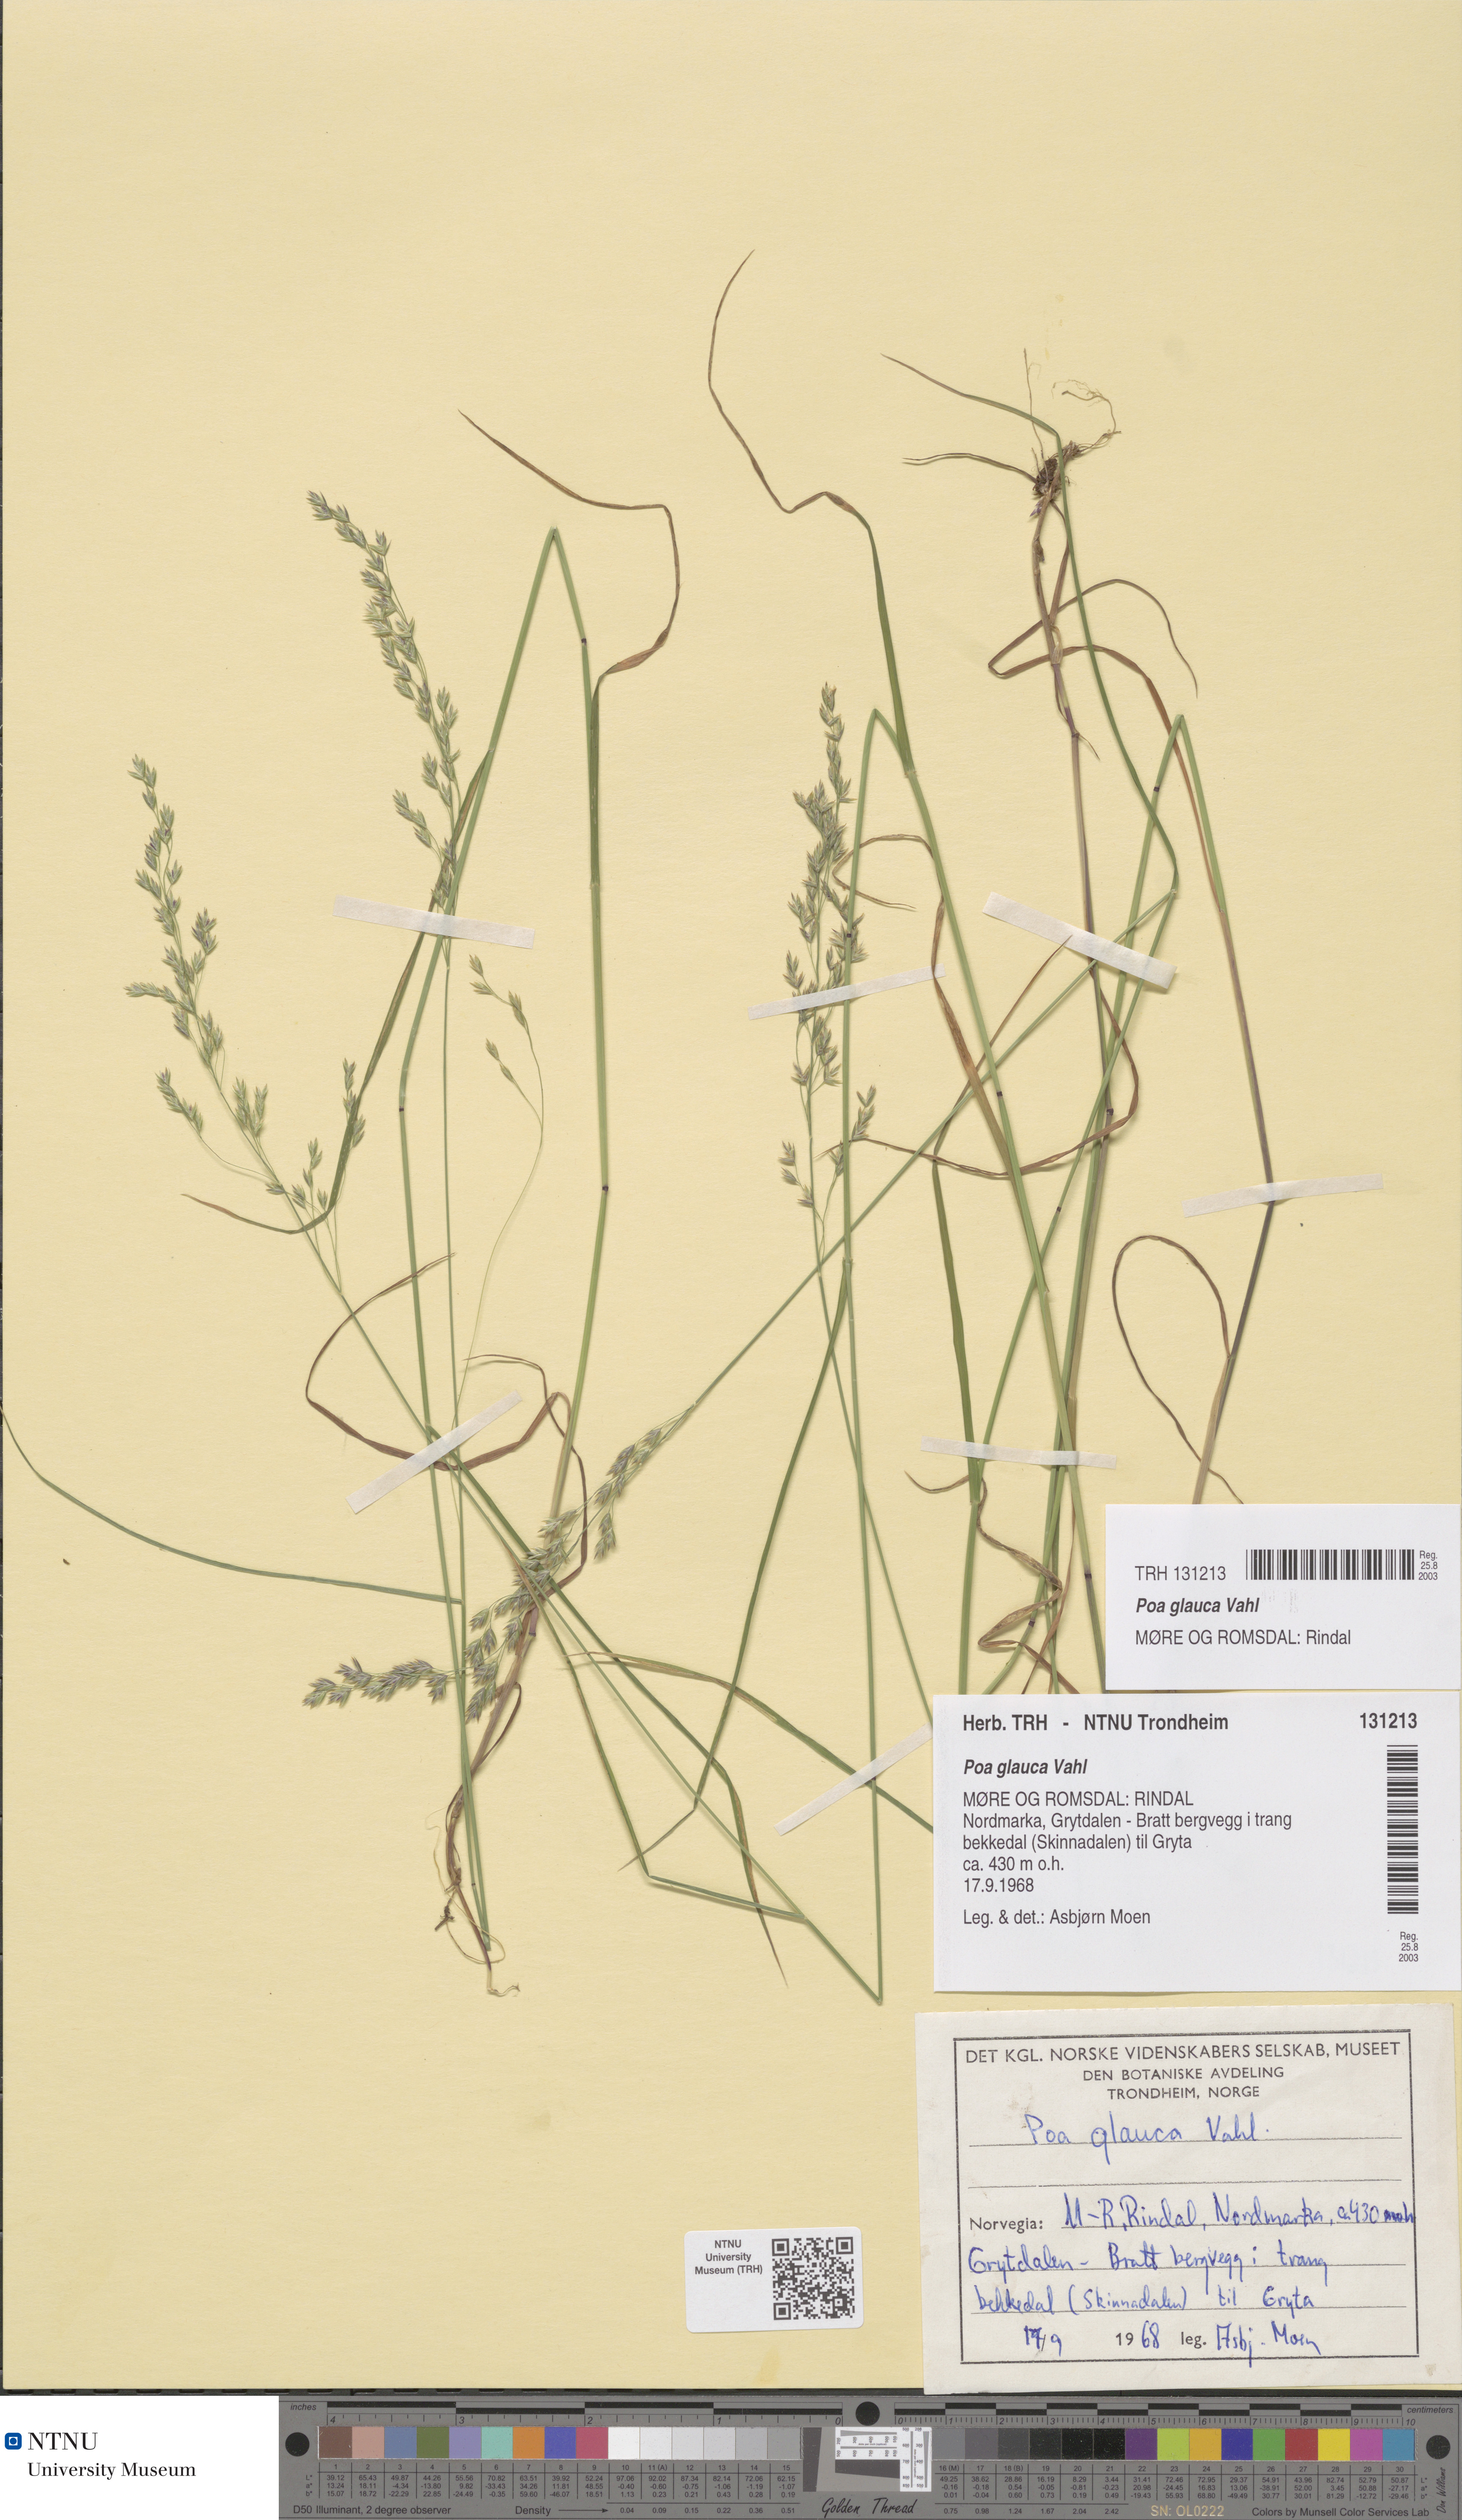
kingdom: Plantae
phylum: Tracheophyta
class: Liliopsida
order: Poales
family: Poaceae
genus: Poa
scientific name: Poa glauca
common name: Glaucous bluegrass
